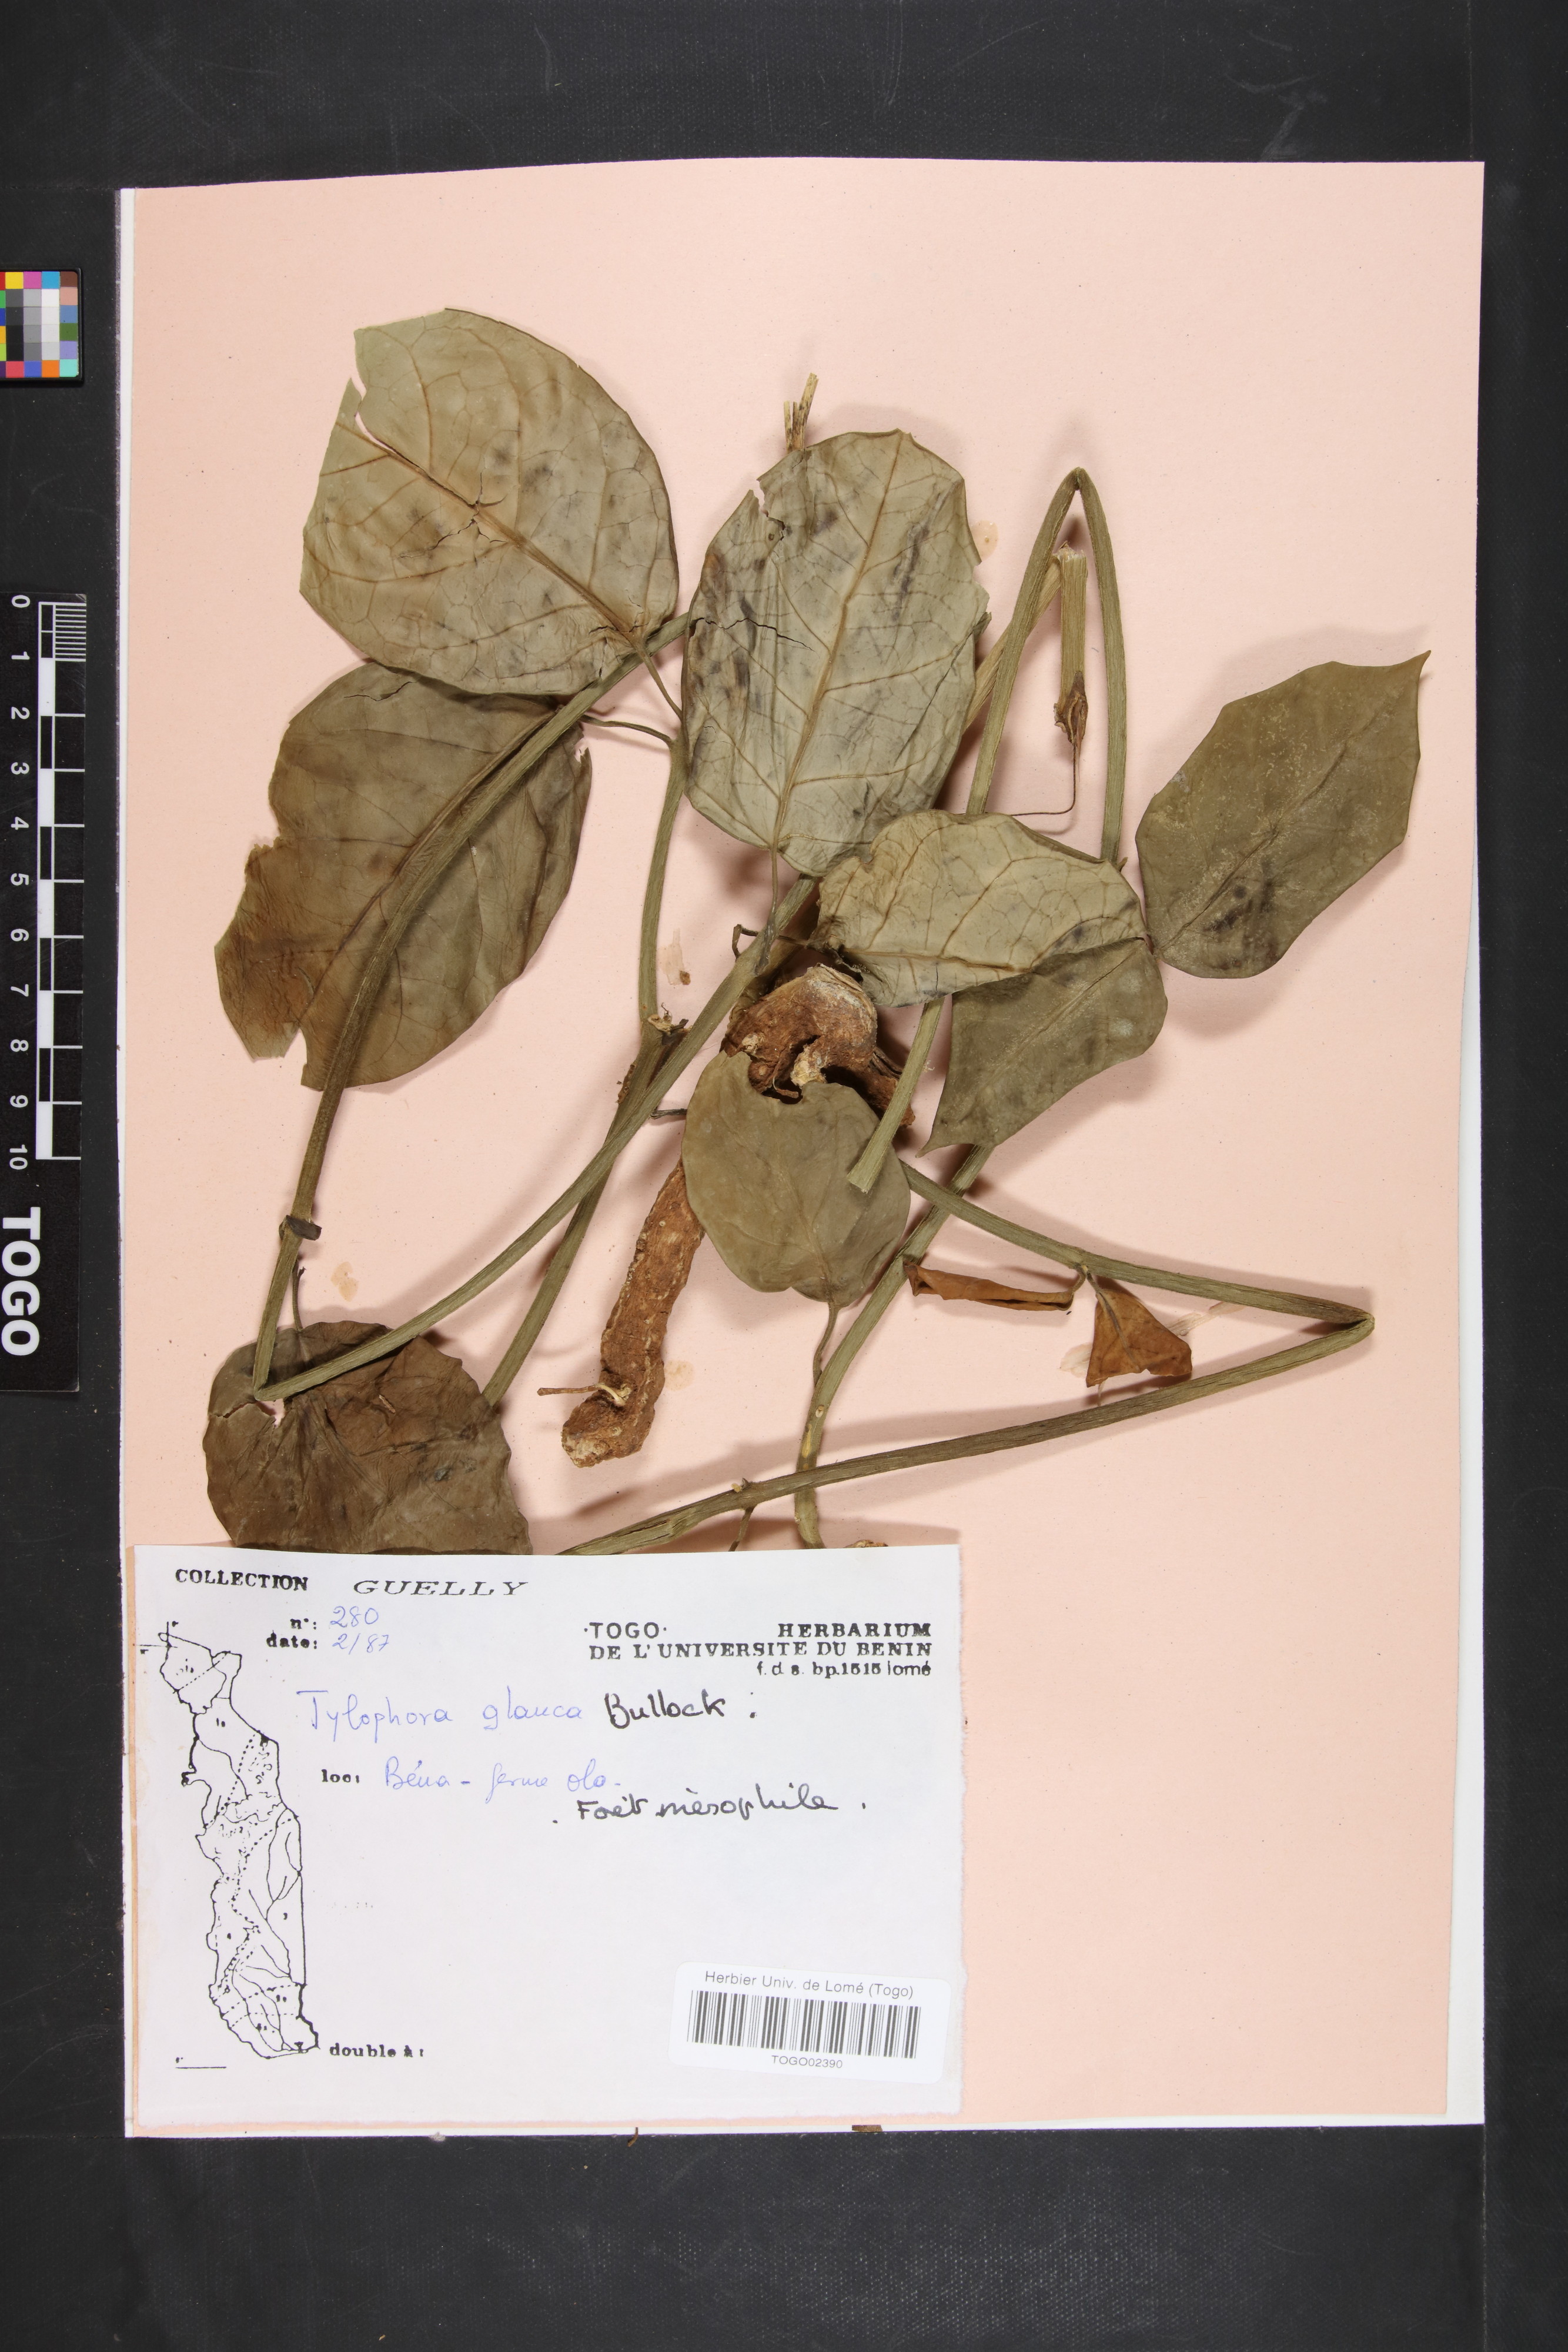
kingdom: Plantae
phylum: Tracheophyta
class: Magnoliopsida
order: Gentianales
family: Apocynaceae
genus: Vincetoxicum
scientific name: Vincetoxicum cameroonicum
